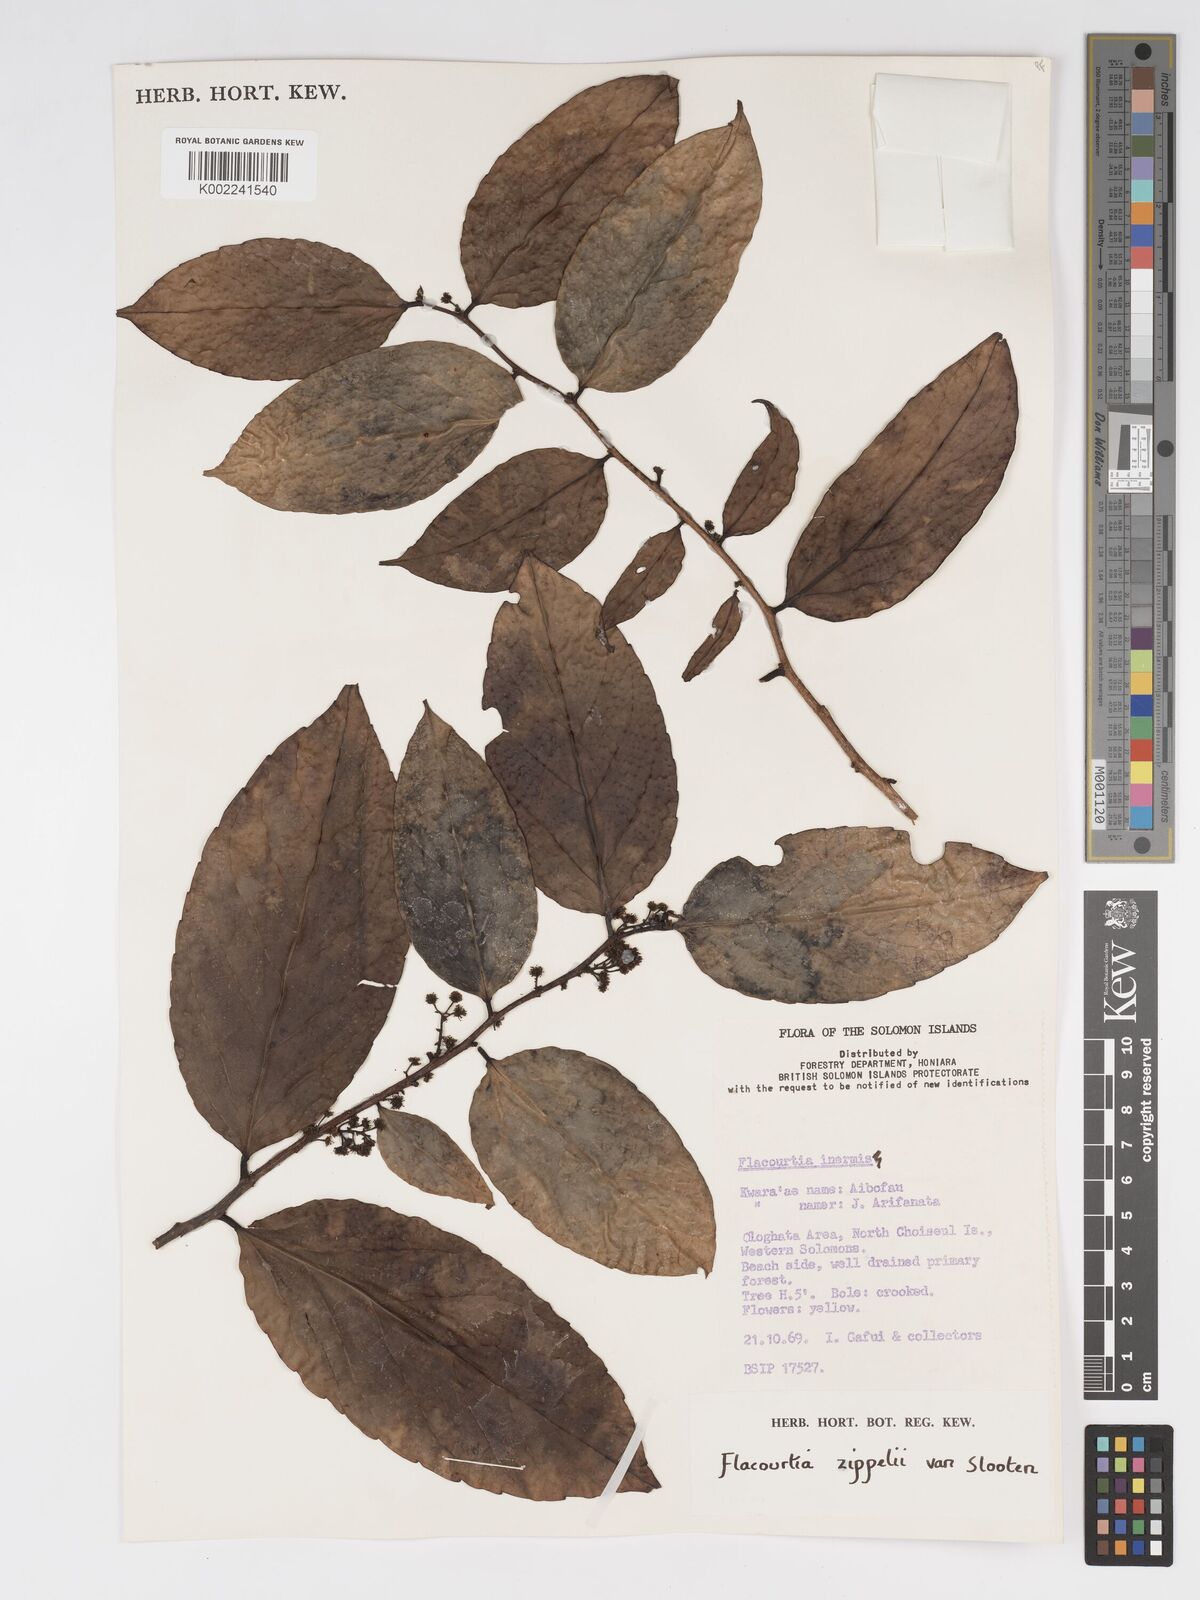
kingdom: Plantae
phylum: Tracheophyta
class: Magnoliopsida
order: Malpighiales
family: Salicaceae
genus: Flacourtia
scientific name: Flacourtia zippelii
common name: Zippeli plum
